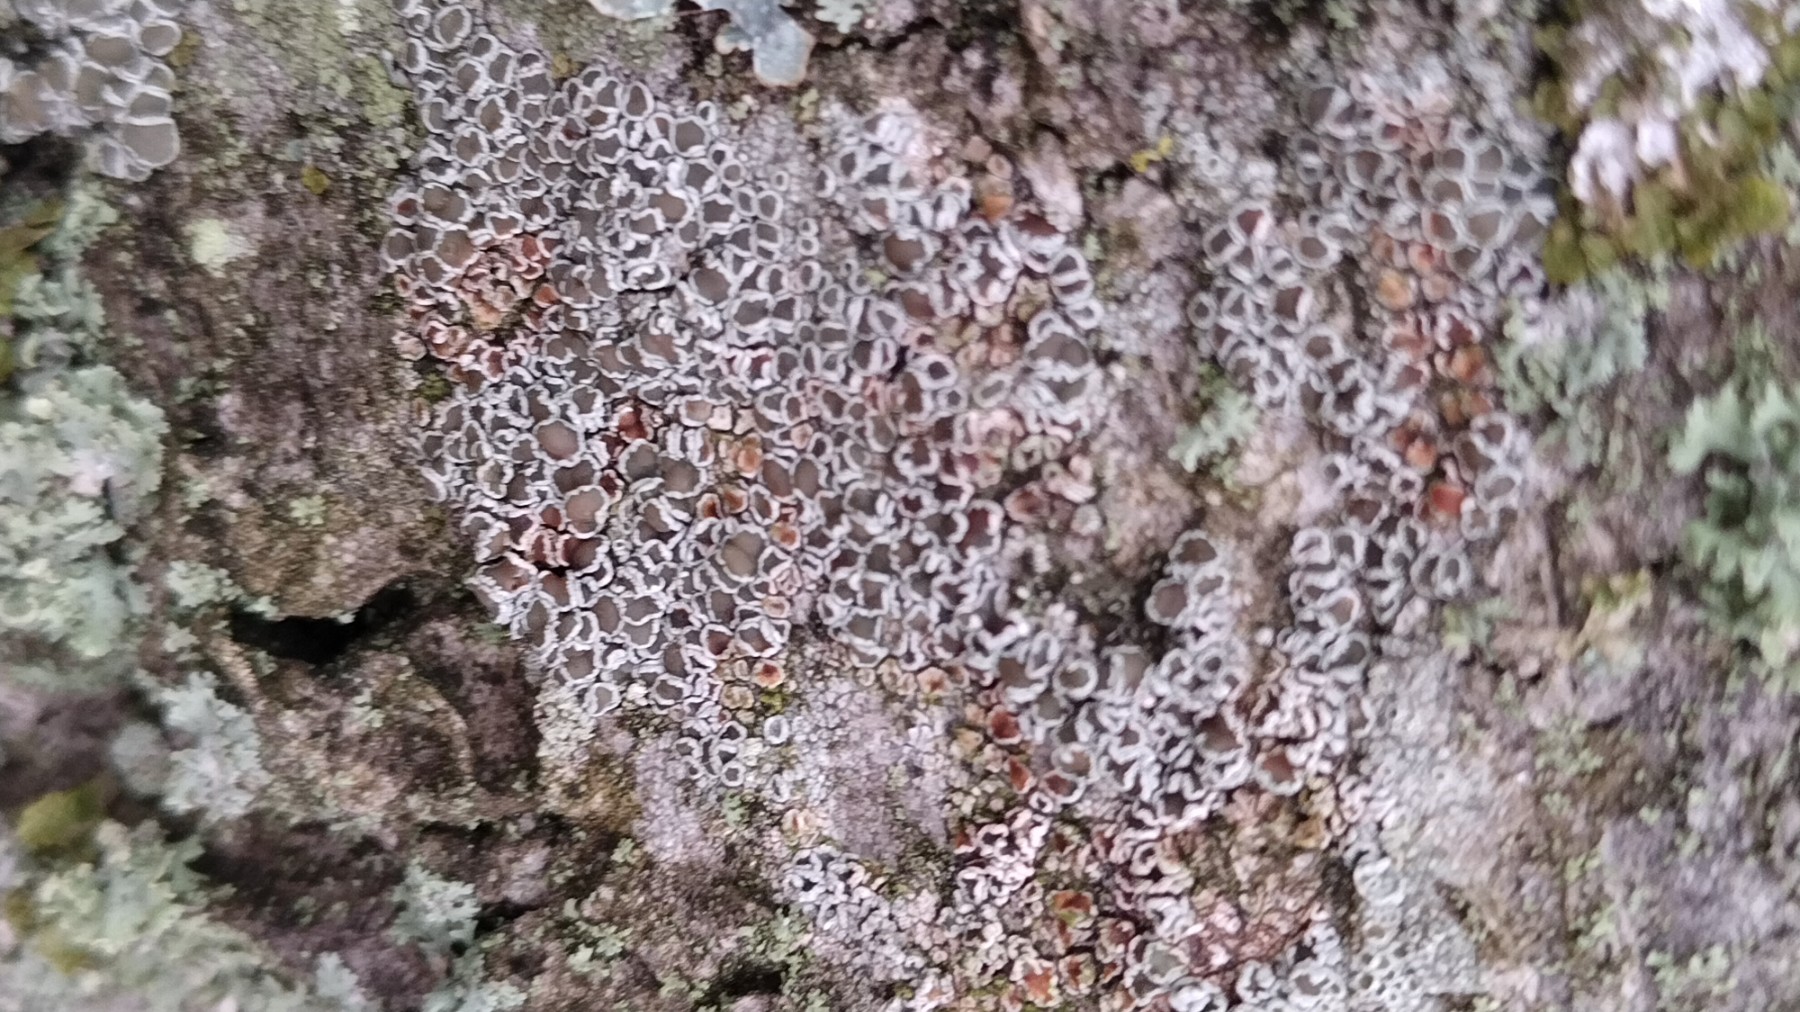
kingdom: Fungi
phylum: Ascomycota
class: Lecanoromycetes
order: Lecanorales
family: Lecanoraceae
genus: Lecanora
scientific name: Lecanora chlarotera
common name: brun kantskivelav
